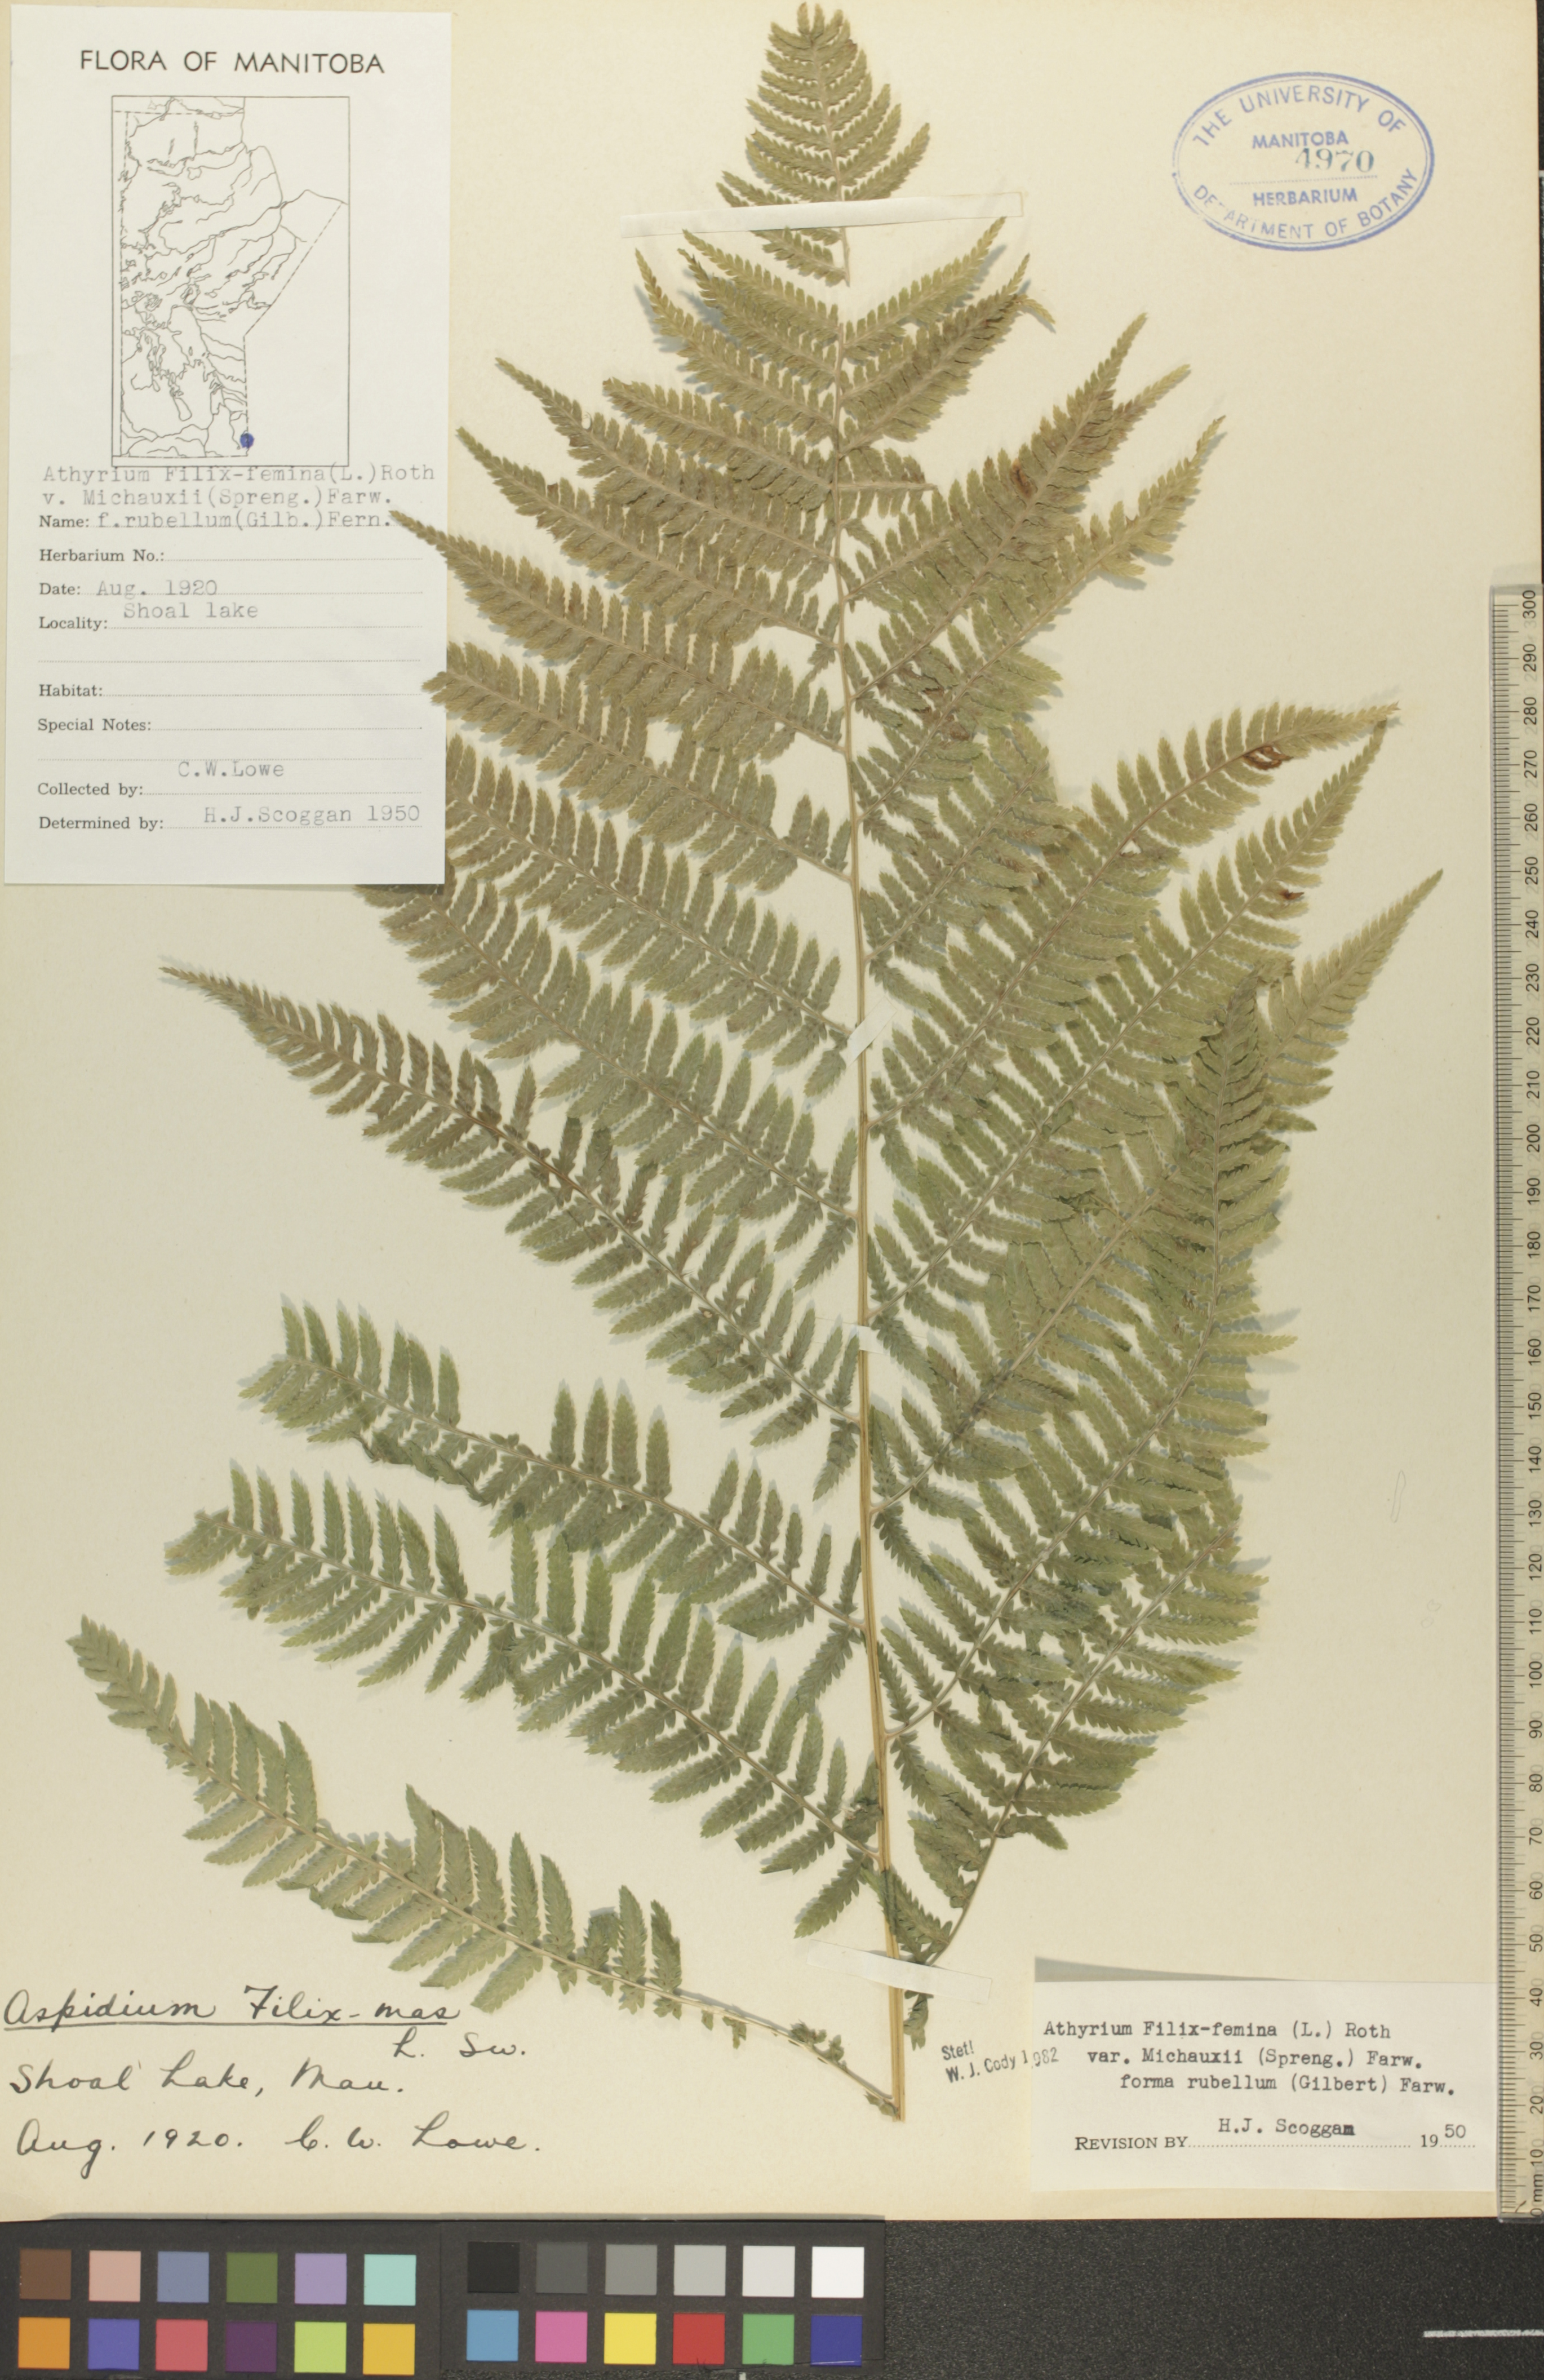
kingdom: Plantae
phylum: Tracheophyta
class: Polypodiopsida
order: Polypodiales
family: Athyriaceae
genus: Athyrium
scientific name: Athyrium angustum
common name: Northern lady fern
